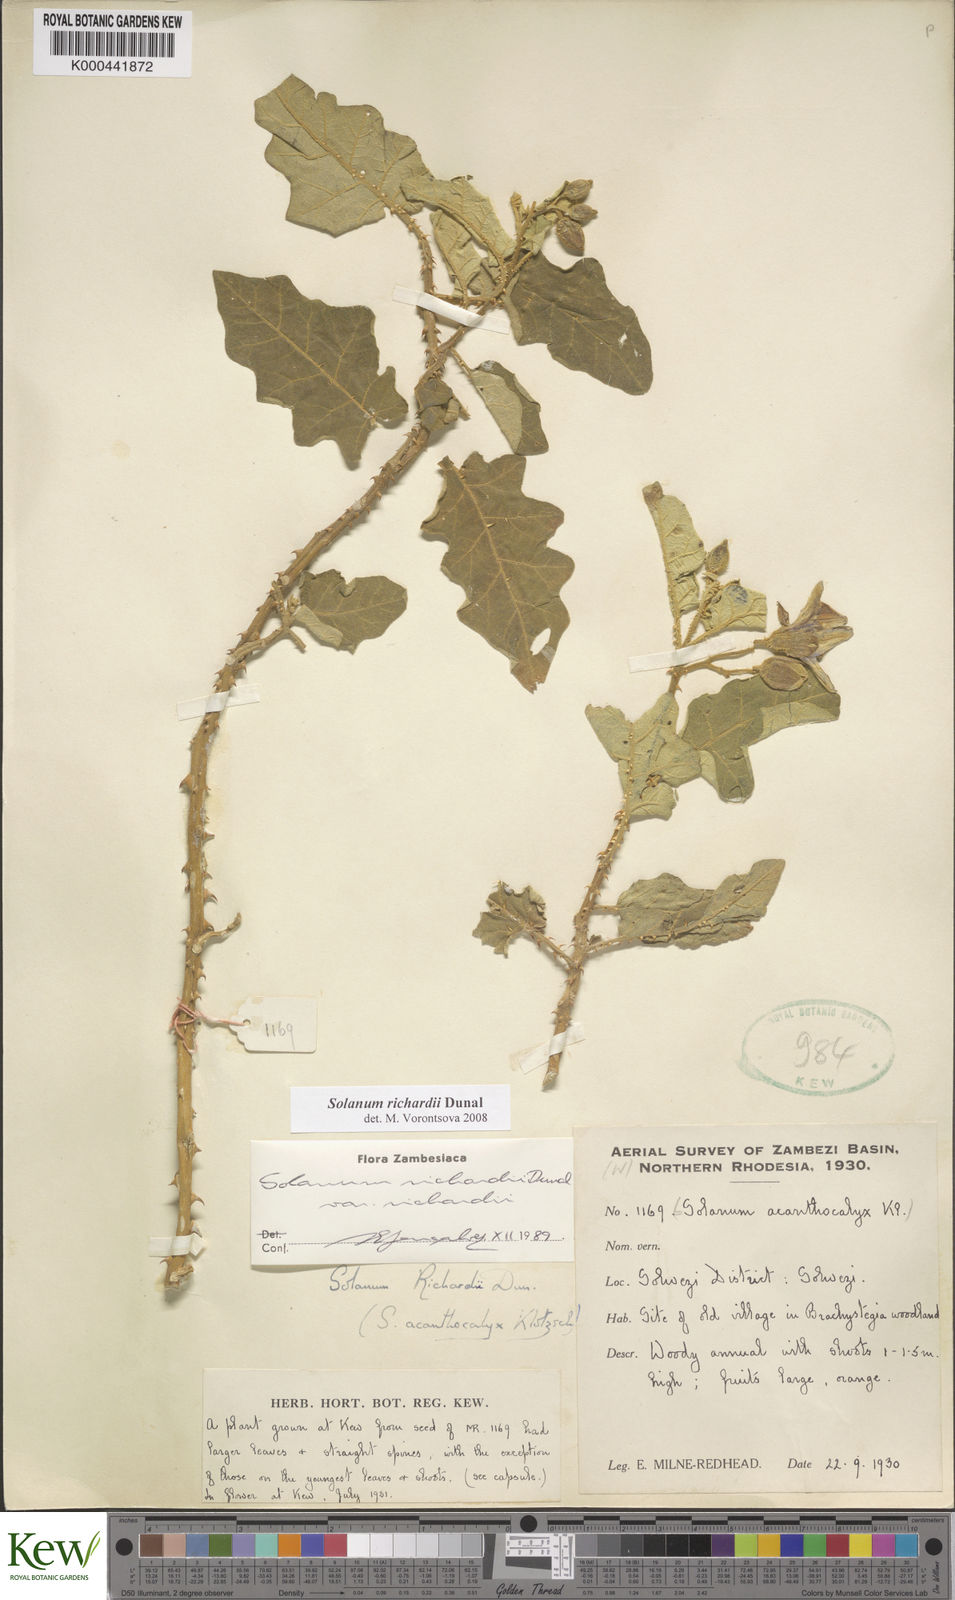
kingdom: Plantae
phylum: Tracheophyta
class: Magnoliopsida
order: Solanales
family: Solanaceae
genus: Solanum
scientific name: Solanum richardii
